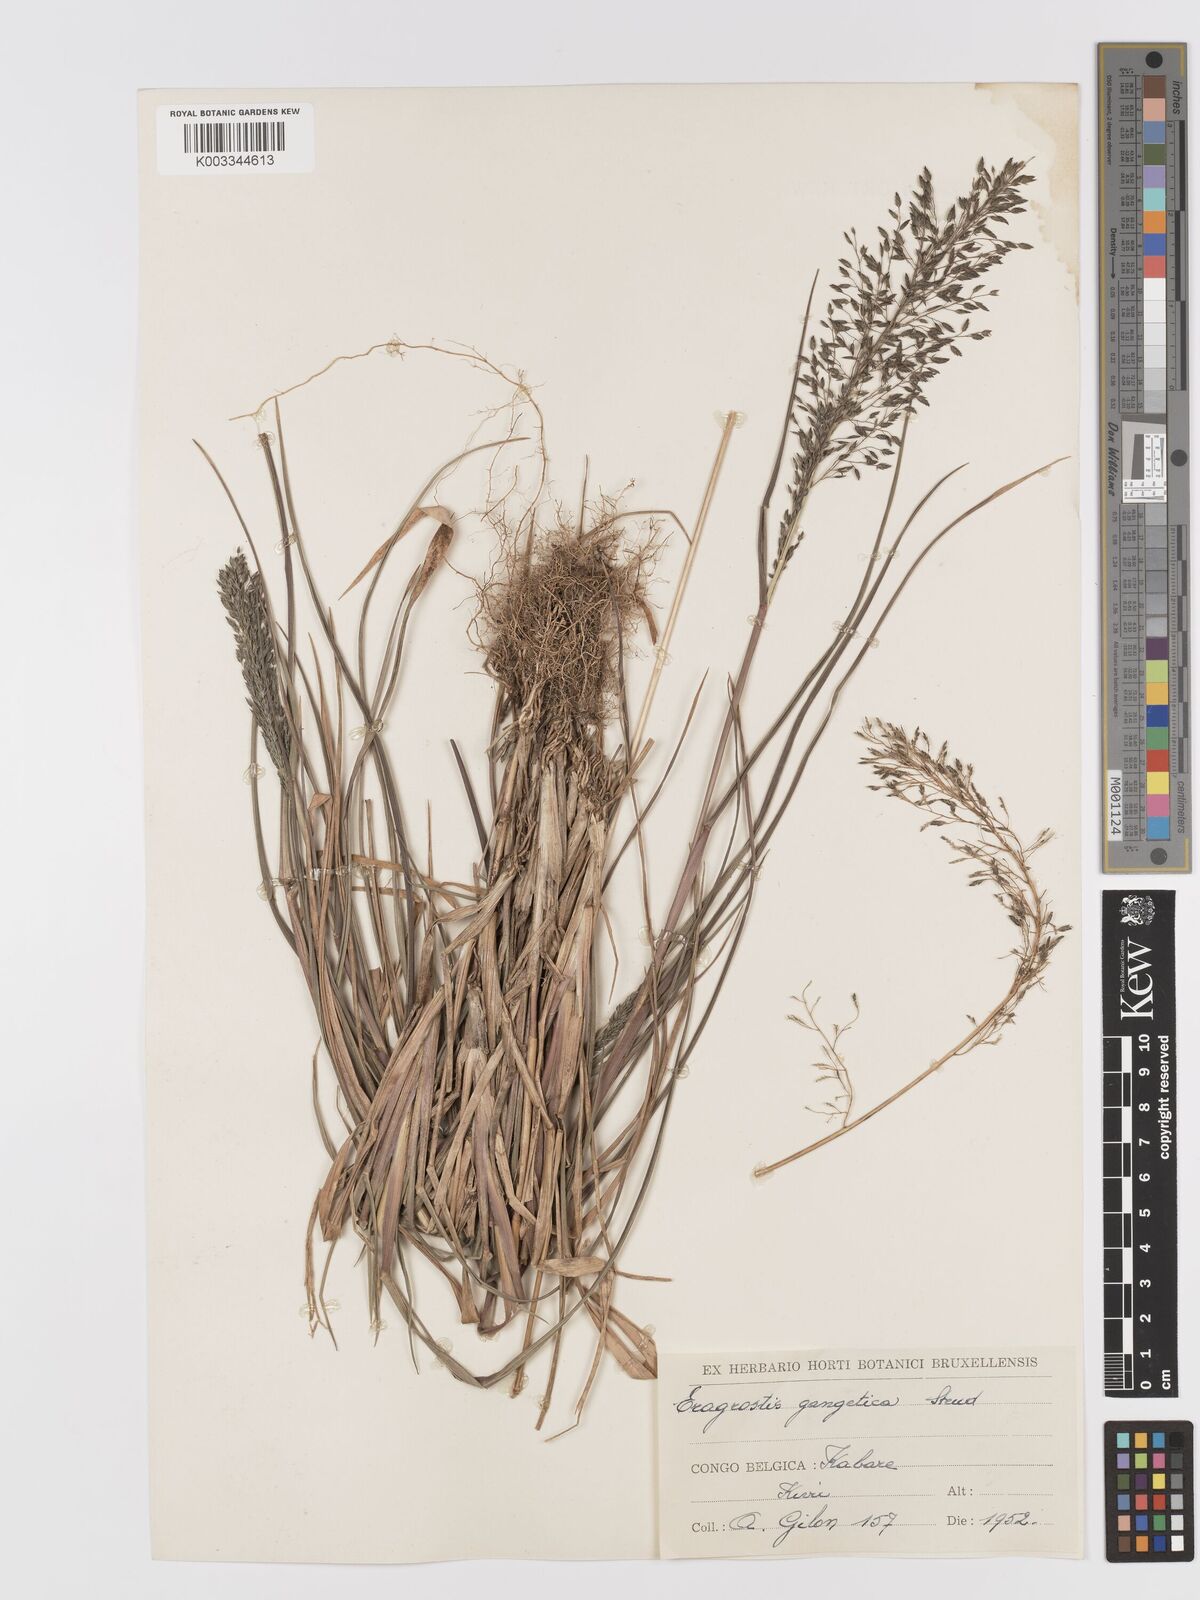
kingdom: Plantae
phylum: Tracheophyta
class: Liliopsida
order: Poales
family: Poaceae
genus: Eragrostis
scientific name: Eragrostis gangetica
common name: Slimflower lovegrass
